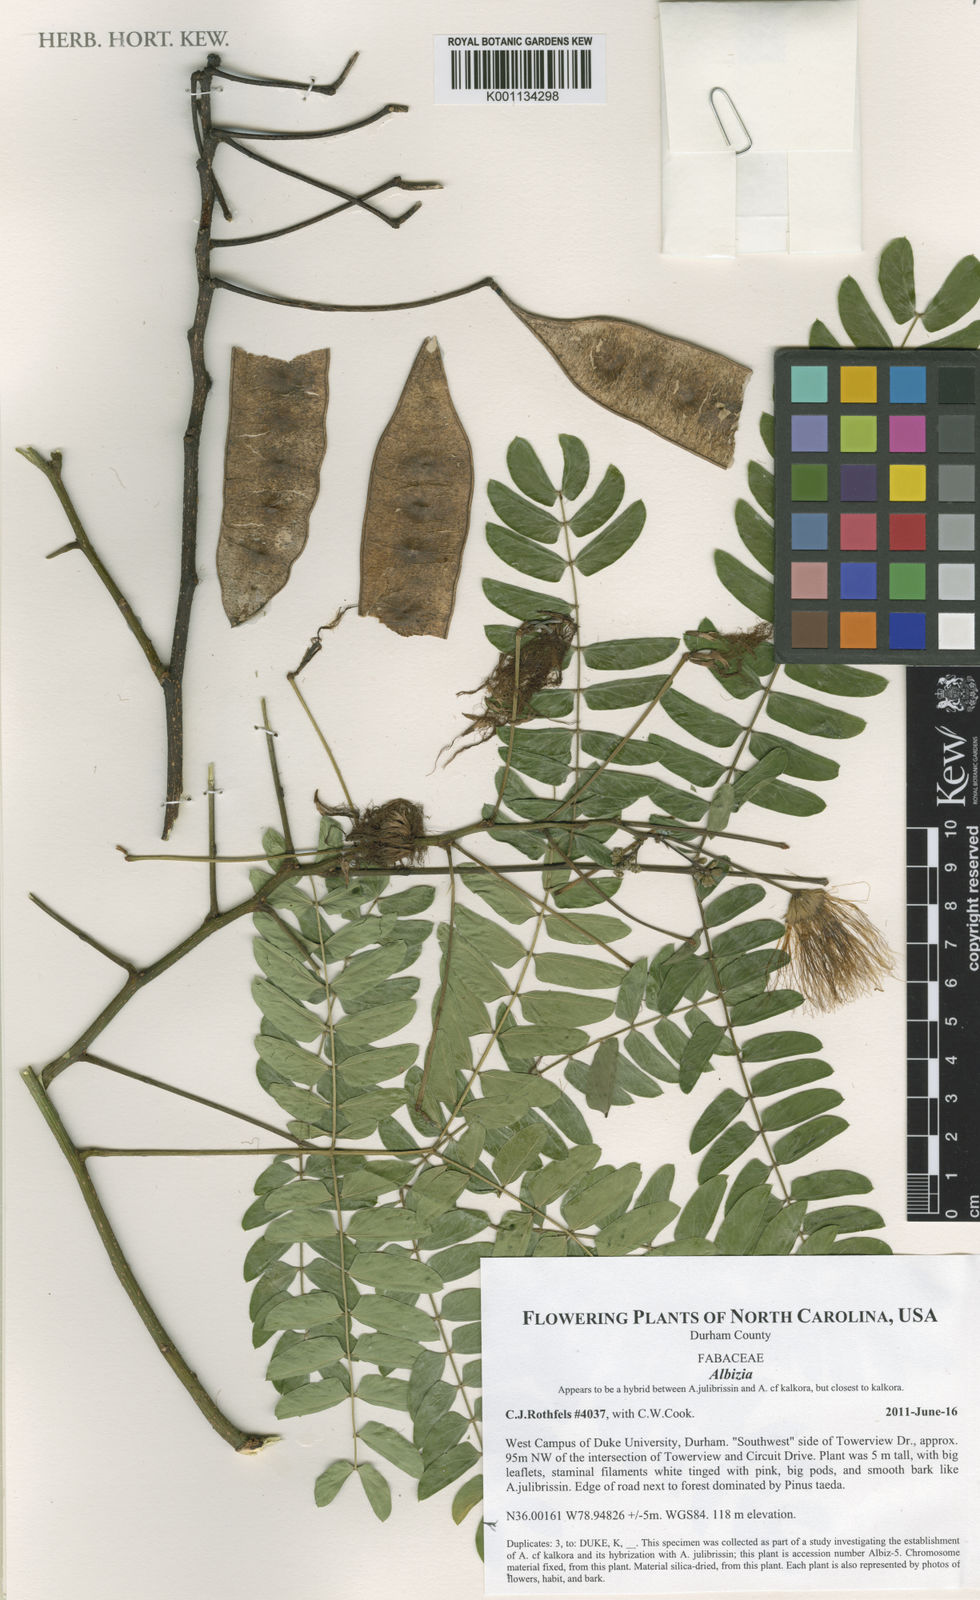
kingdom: Plantae
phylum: Tracheophyta
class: Magnoliopsida
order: Fabales
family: Fabaceae
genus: Albizia
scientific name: Albizia
